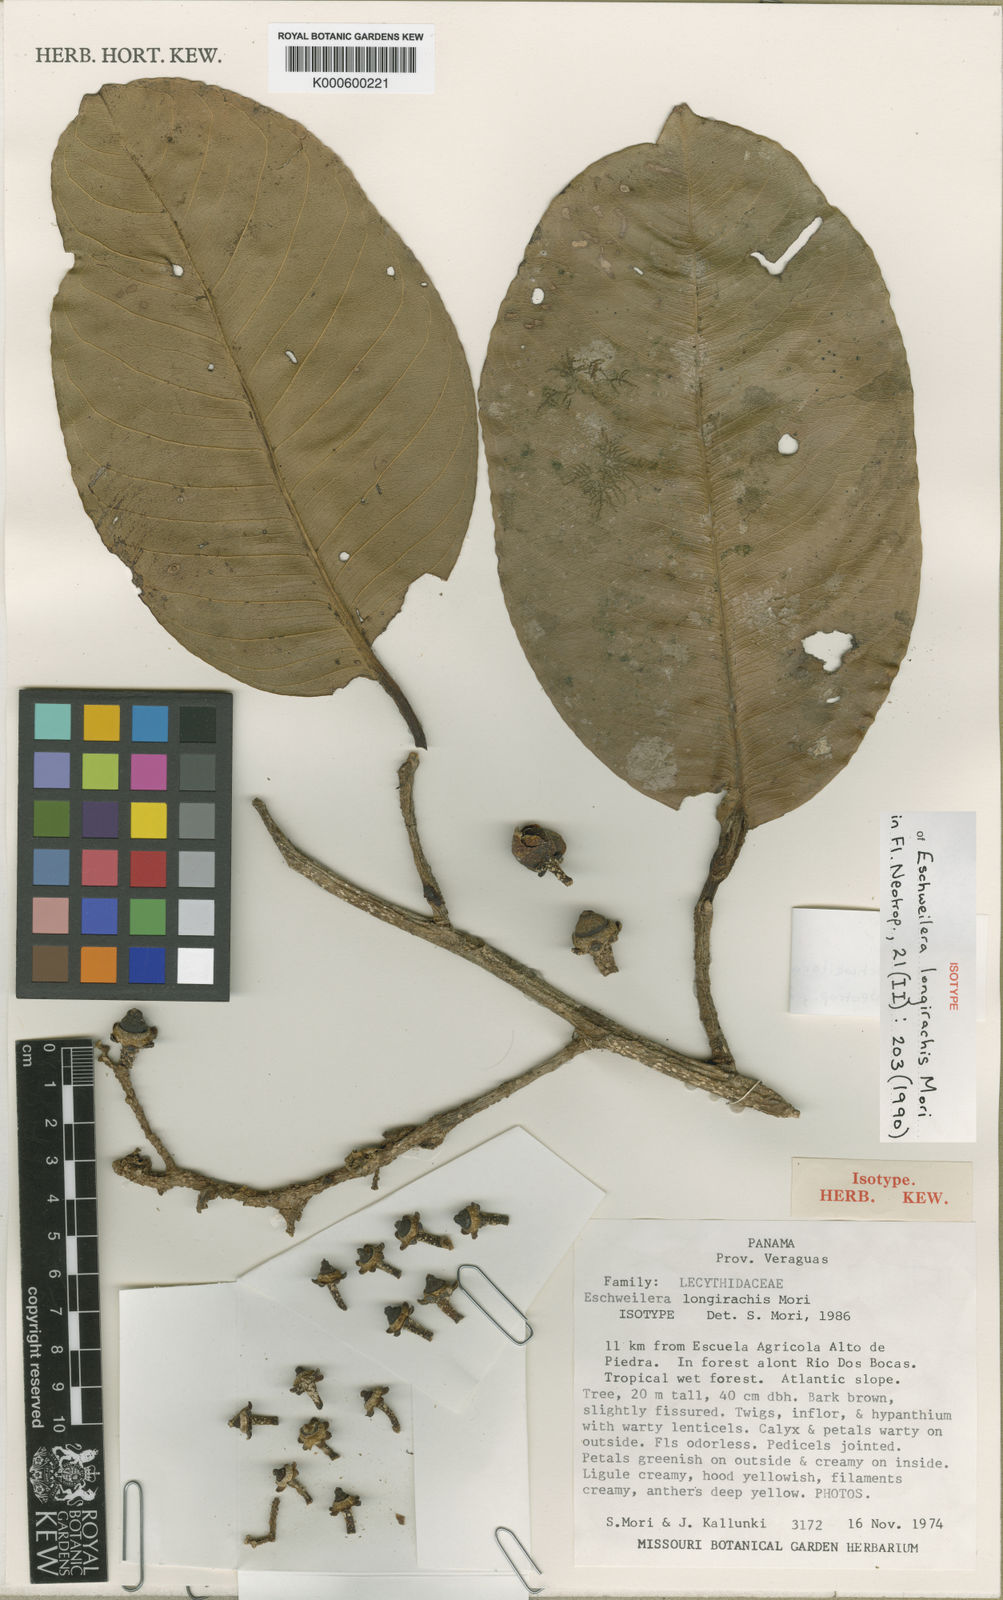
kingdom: Plantae
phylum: Tracheophyta
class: Magnoliopsida
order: Ericales
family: Lecythidaceae
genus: Eschweilera
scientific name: Eschweilera collinsii
